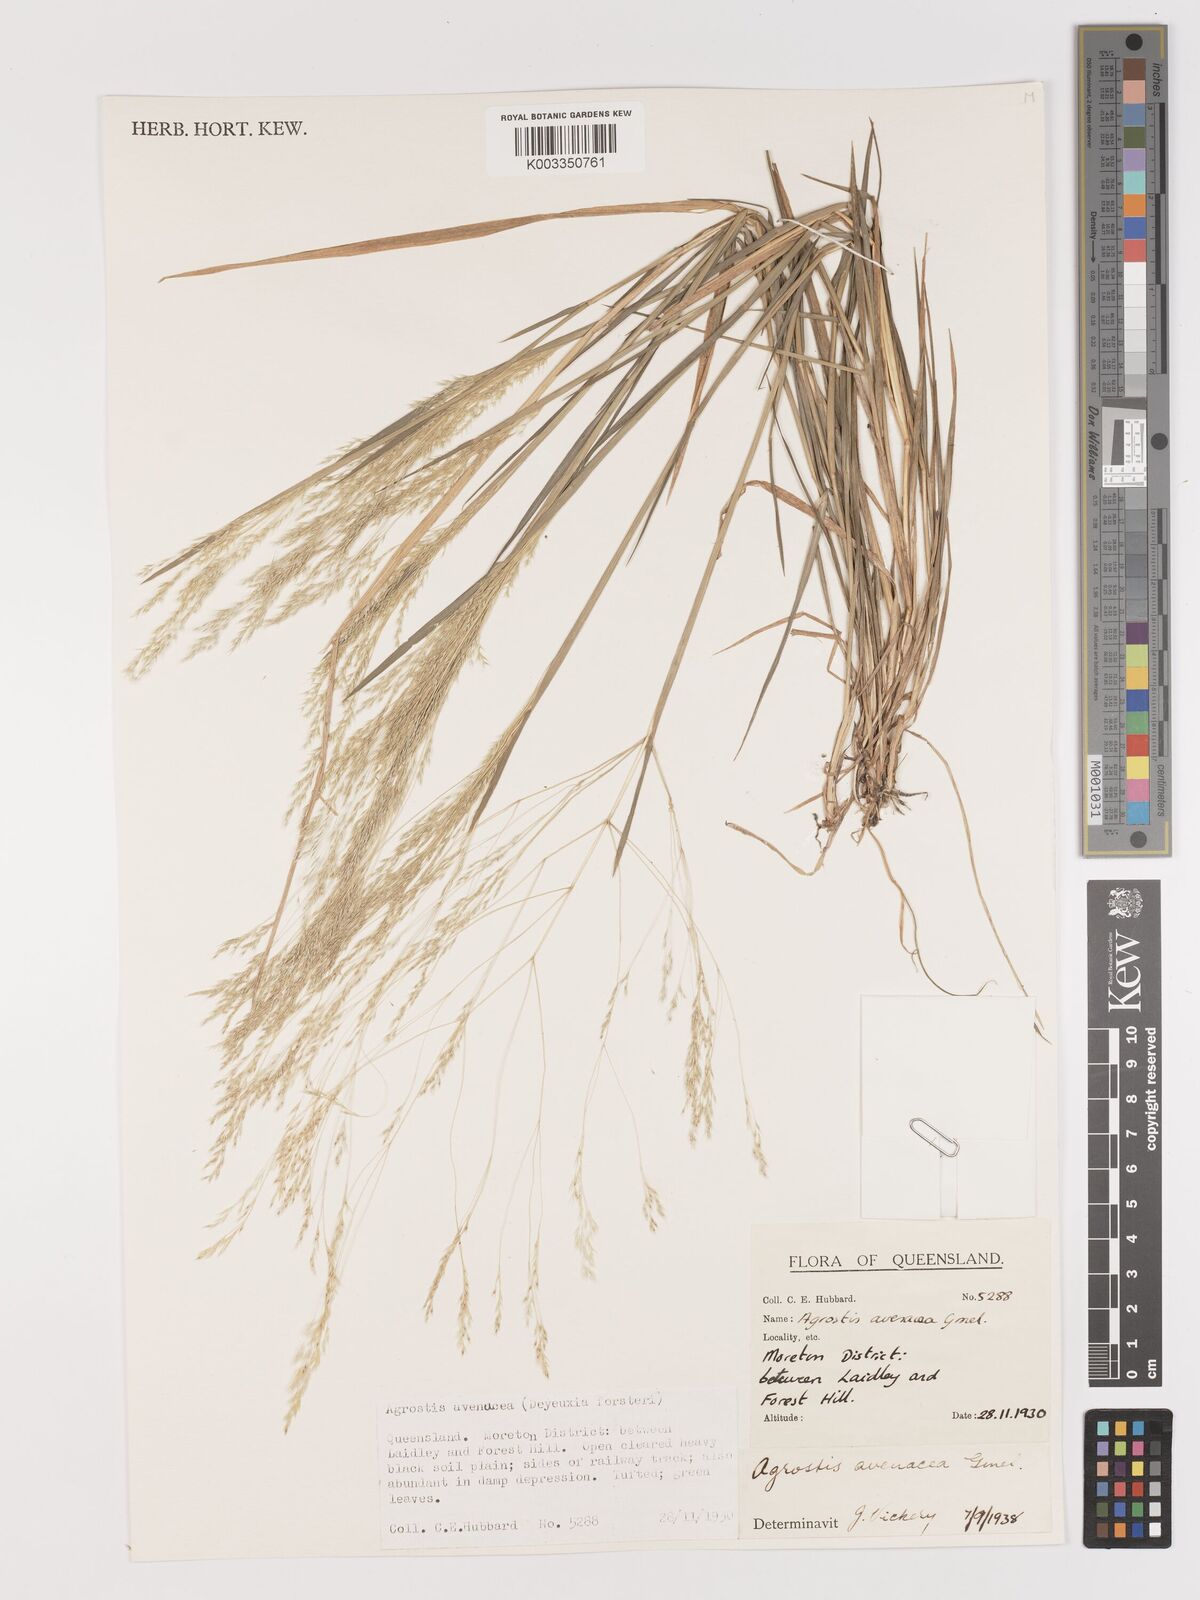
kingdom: Plantae
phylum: Tracheophyta
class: Liliopsida
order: Poales
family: Poaceae
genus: Lachnagrostis
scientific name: Lachnagrostis filiformis
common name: Bentgrass
